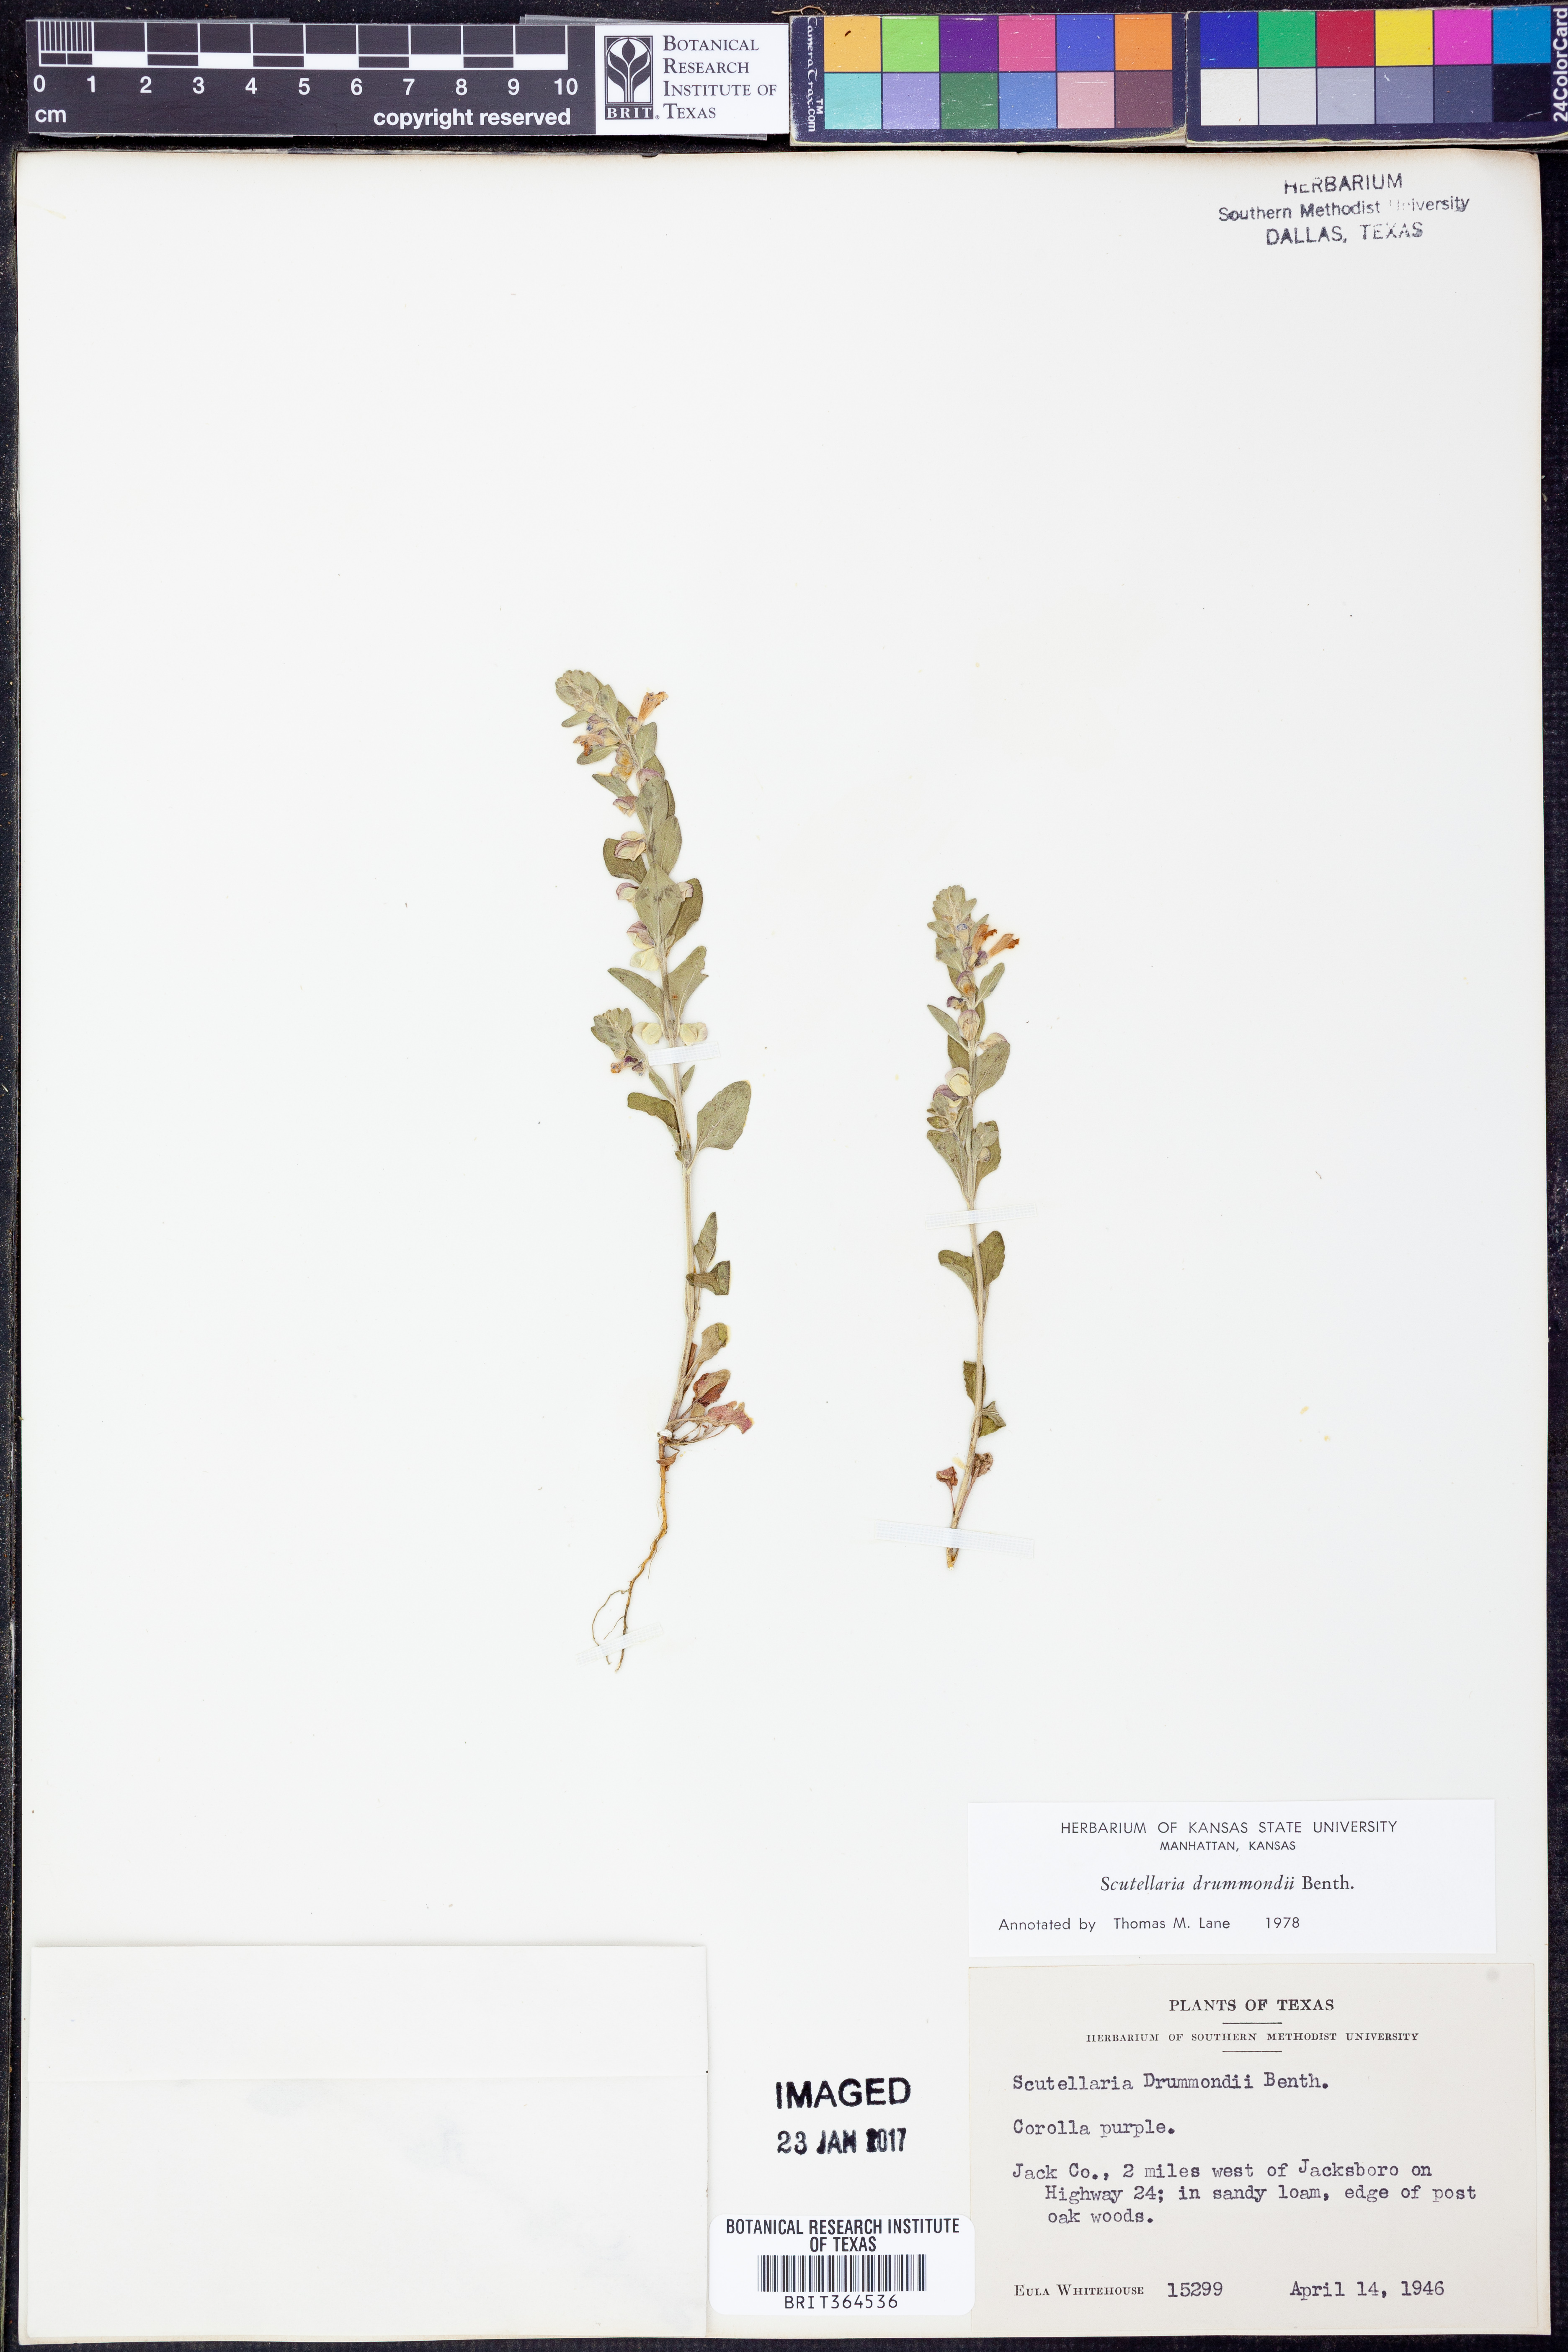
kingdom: Plantae
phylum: Tracheophyta
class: Magnoliopsida
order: Lamiales
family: Lamiaceae
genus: Scutellaria
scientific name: Scutellaria drummondii
